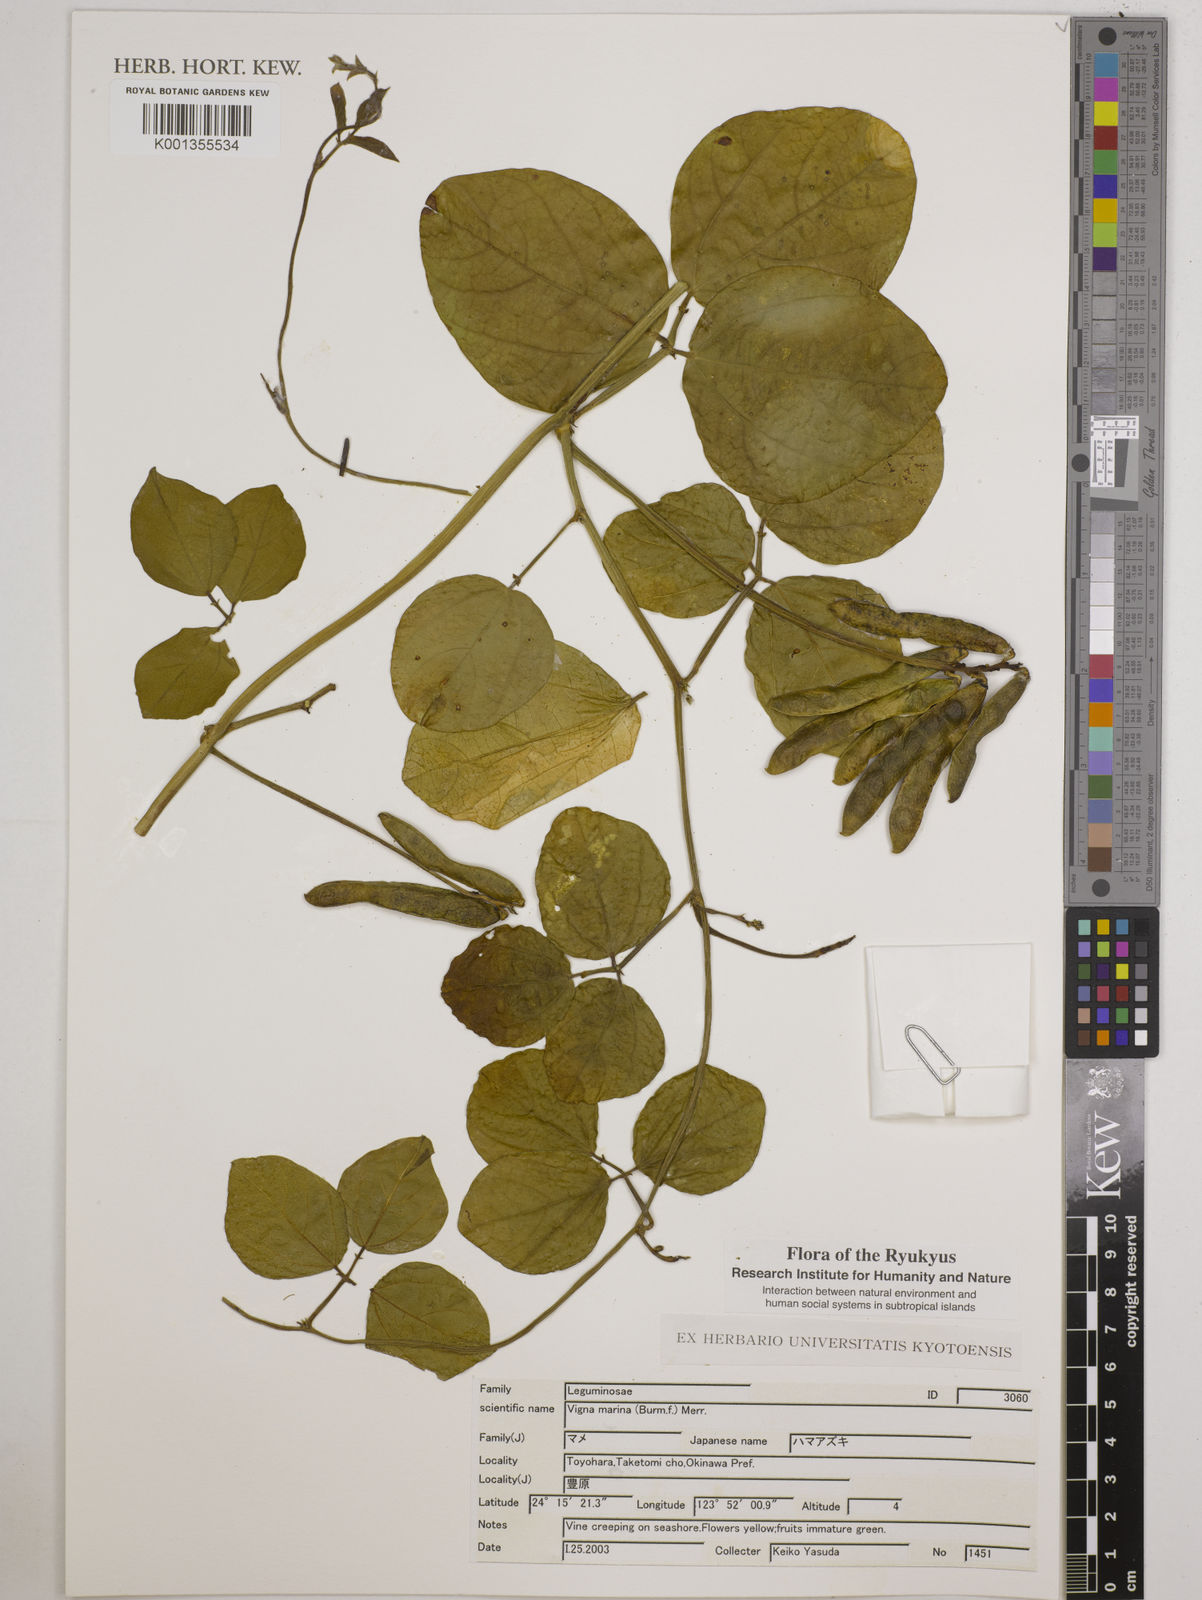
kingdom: Plantae
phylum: Tracheophyta
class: Magnoliopsida
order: Fabales
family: Fabaceae
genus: Vigna
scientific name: Vigna marina
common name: Dune-bean
